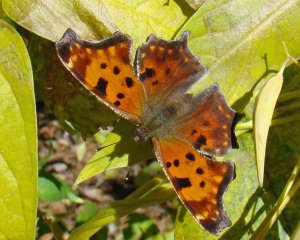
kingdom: Animalia
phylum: Arthropoda
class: Insecta
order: Lepidoptera
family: Nymphalidae
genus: Polygonia
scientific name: Polygonia comma
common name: Eastern Comma
